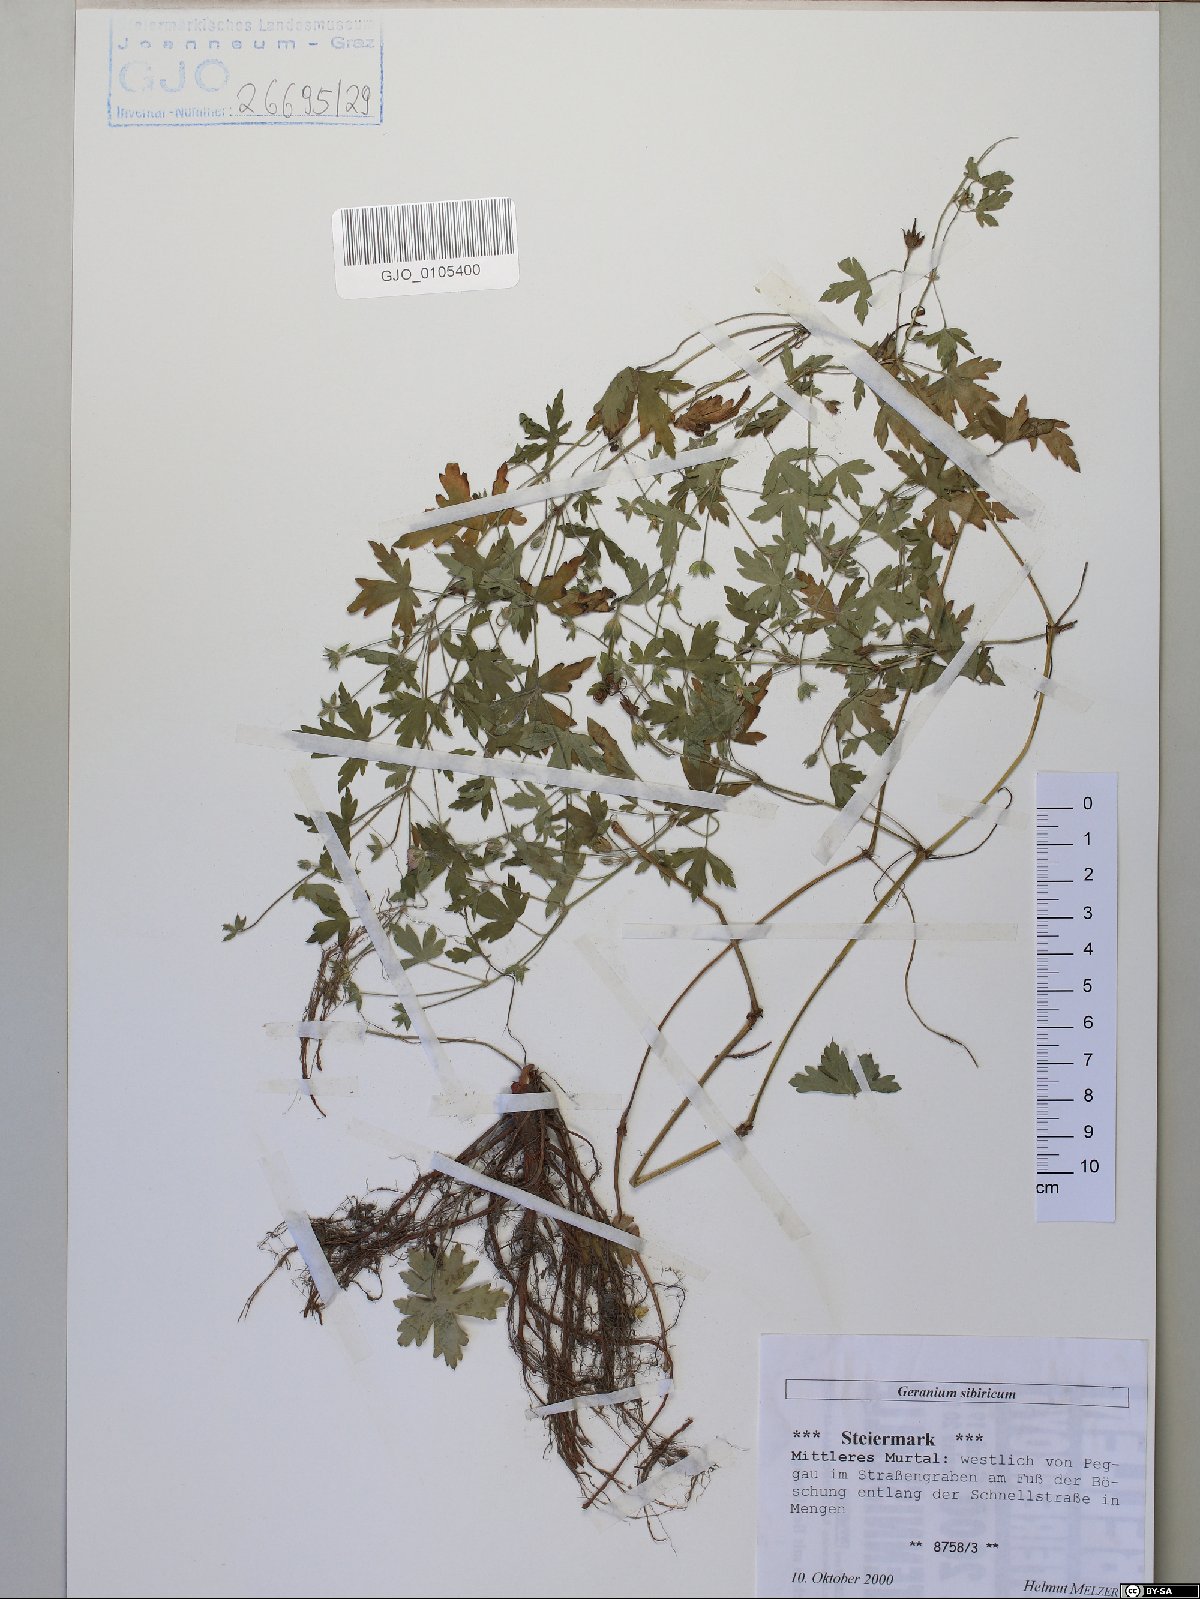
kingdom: Plantae
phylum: Tracheophyta
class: Magnoliopsida
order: Geraniales
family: Geraniaceae
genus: Geranium
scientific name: Geranium sibiricum
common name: Siberian crane's-bill
